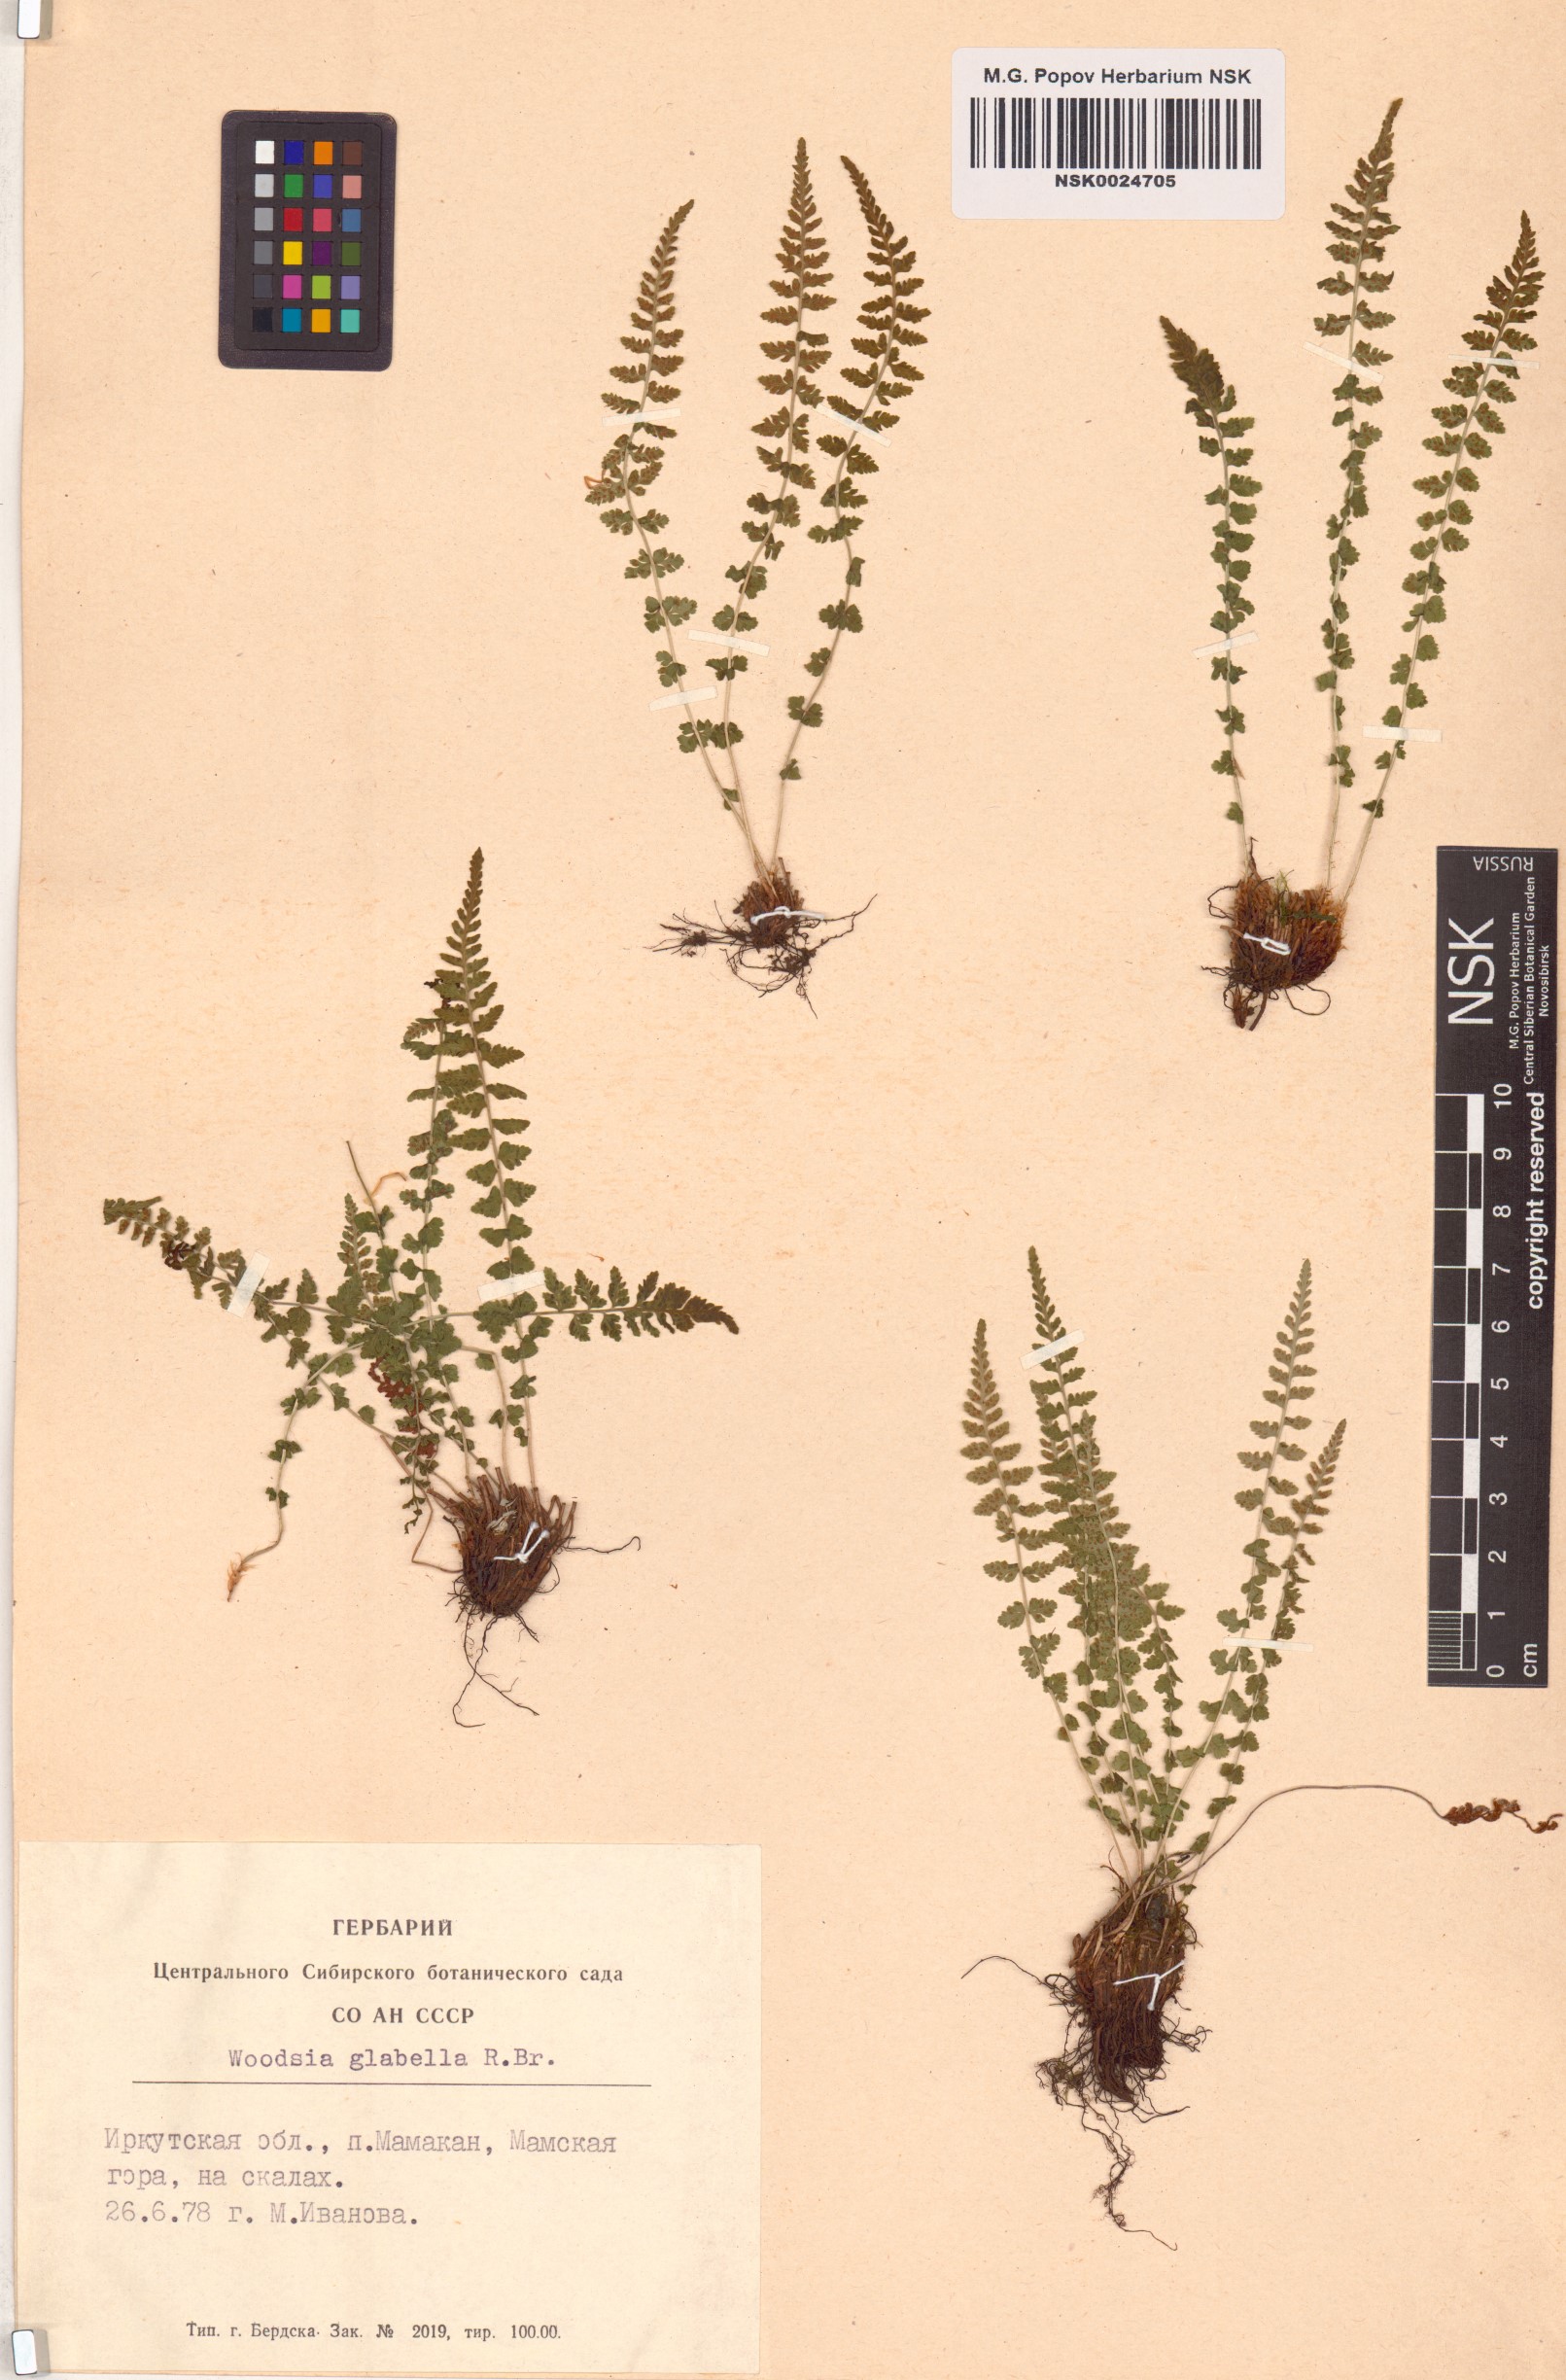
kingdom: Plantae
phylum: Tracheophyta
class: Polypodiopsida
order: Polypodiales
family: Woodsiaceae
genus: Woodsia
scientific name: Woodsia glabella
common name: Smooth woodsia
